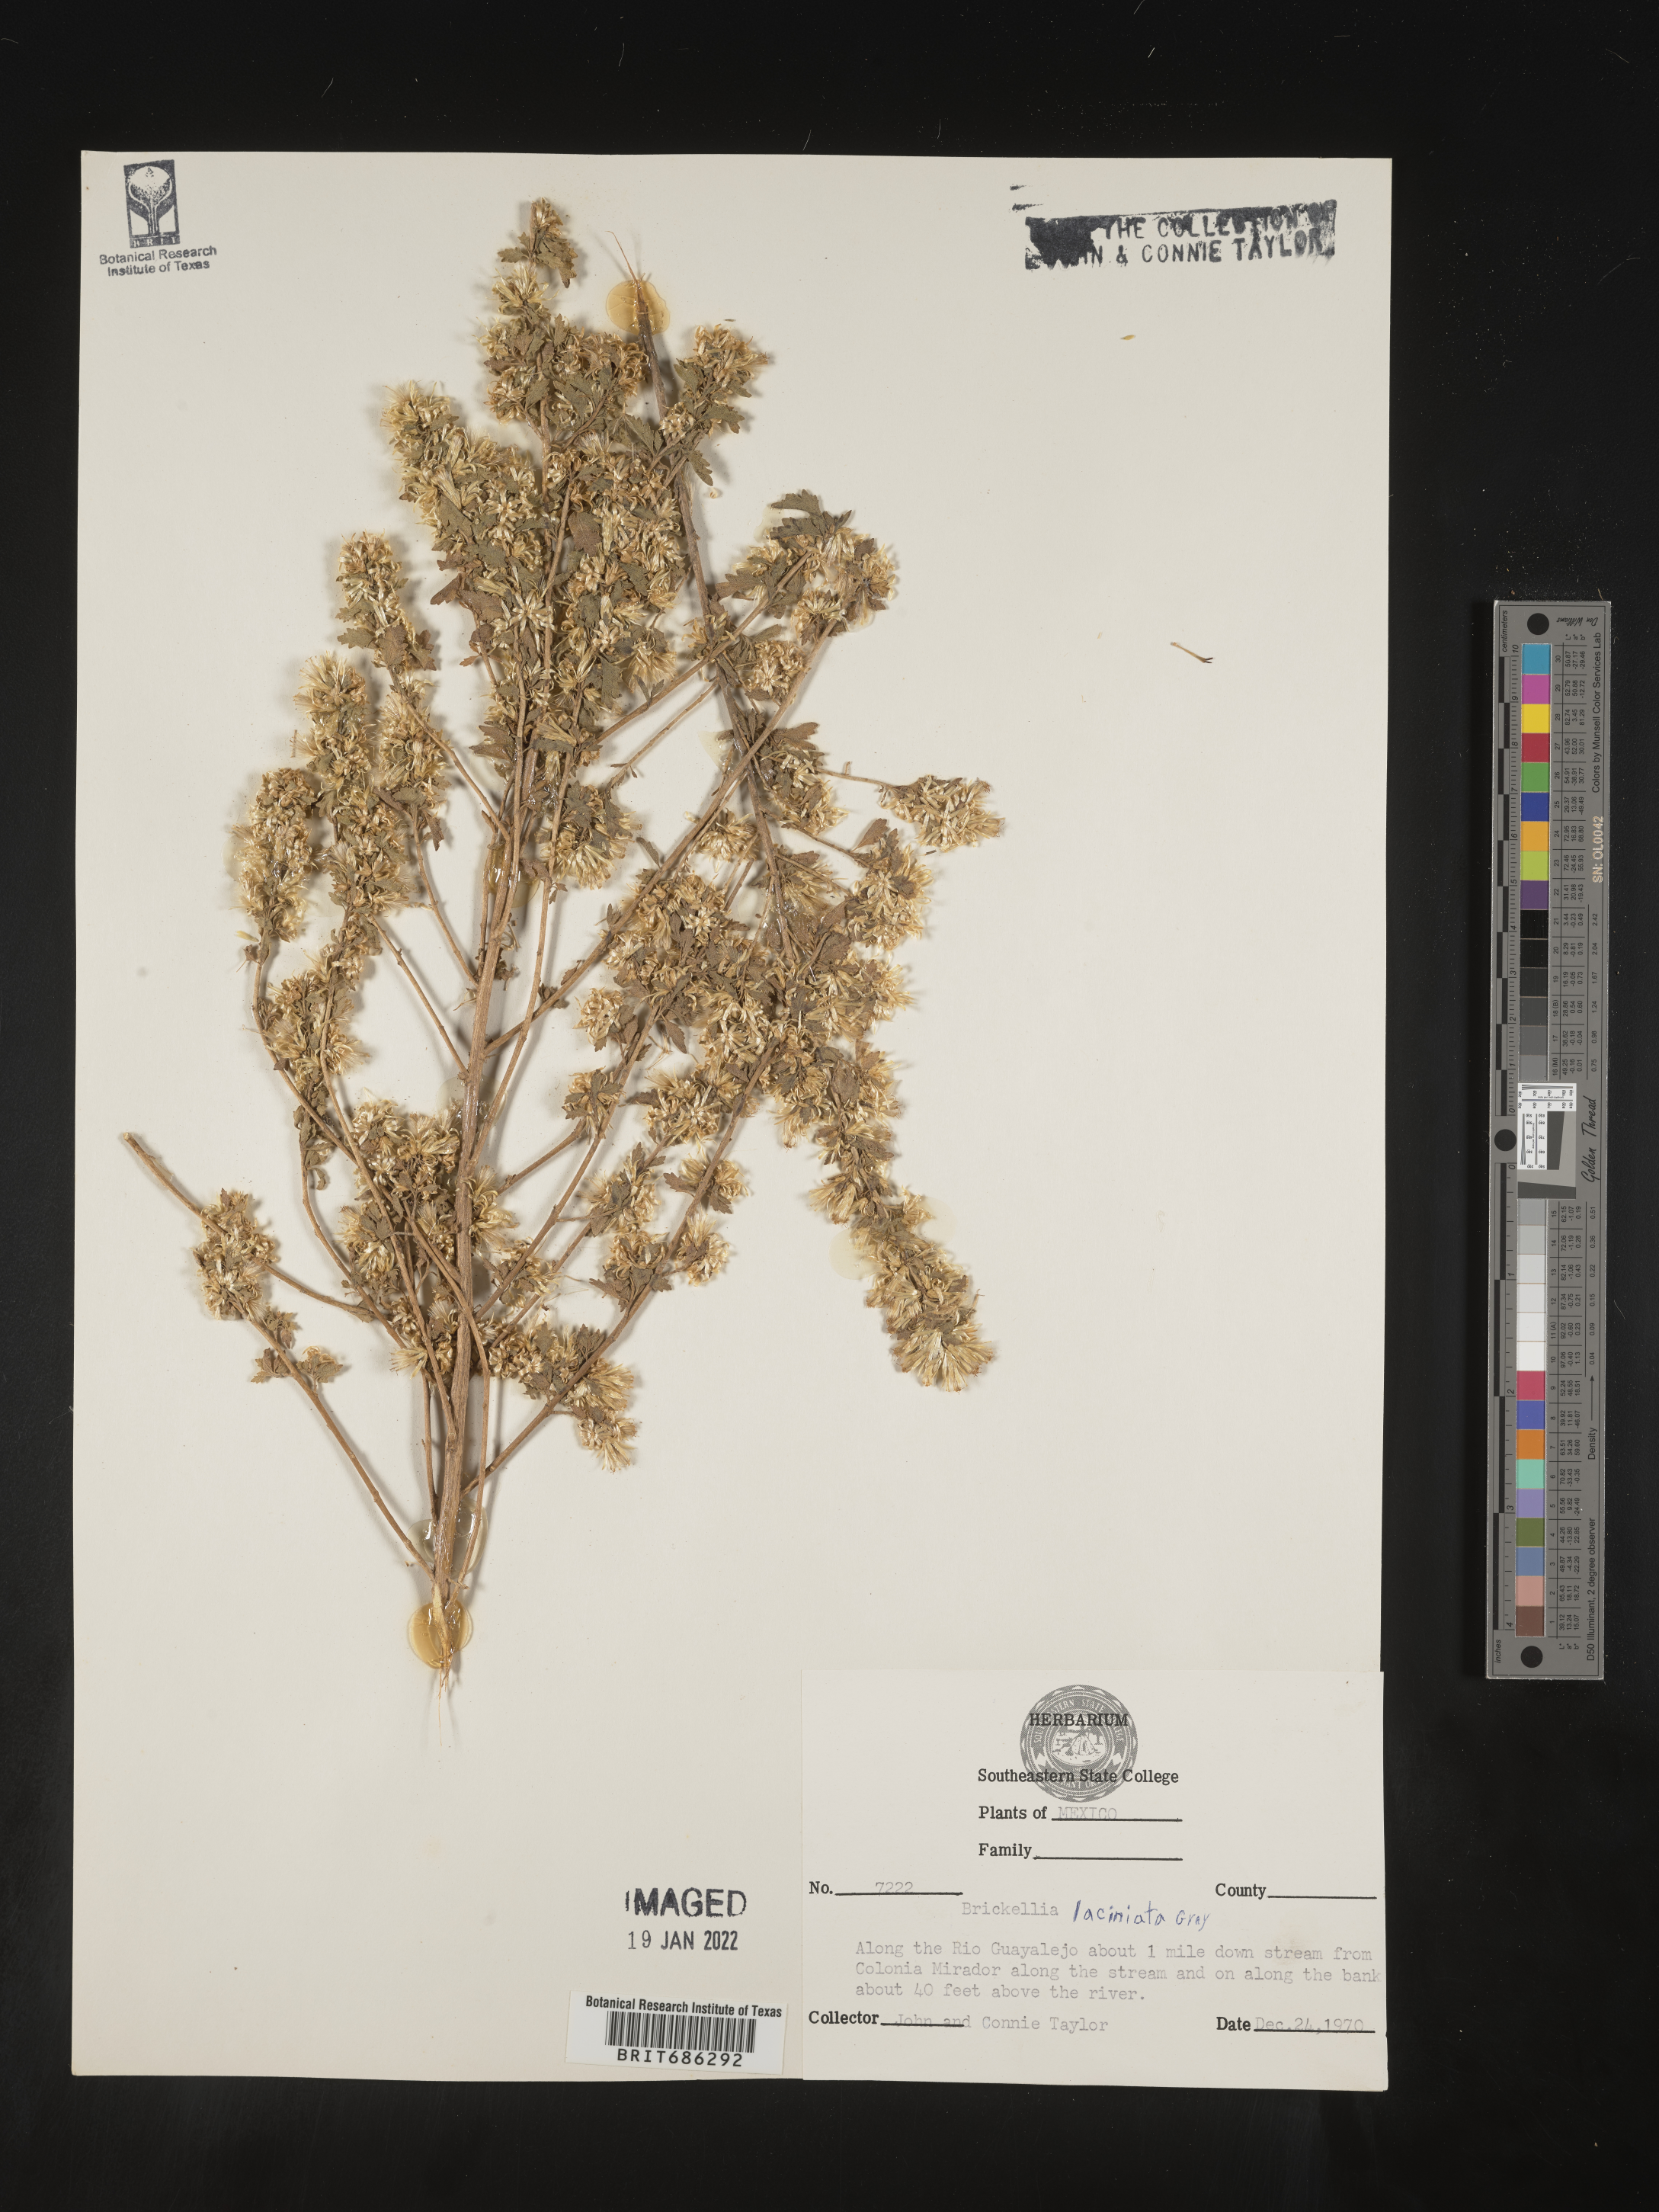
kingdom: Plantae
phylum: Tracheophyta
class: Magnoliopsida
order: Asterales
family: Asteraceae
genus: Brickellia
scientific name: Brickellia
